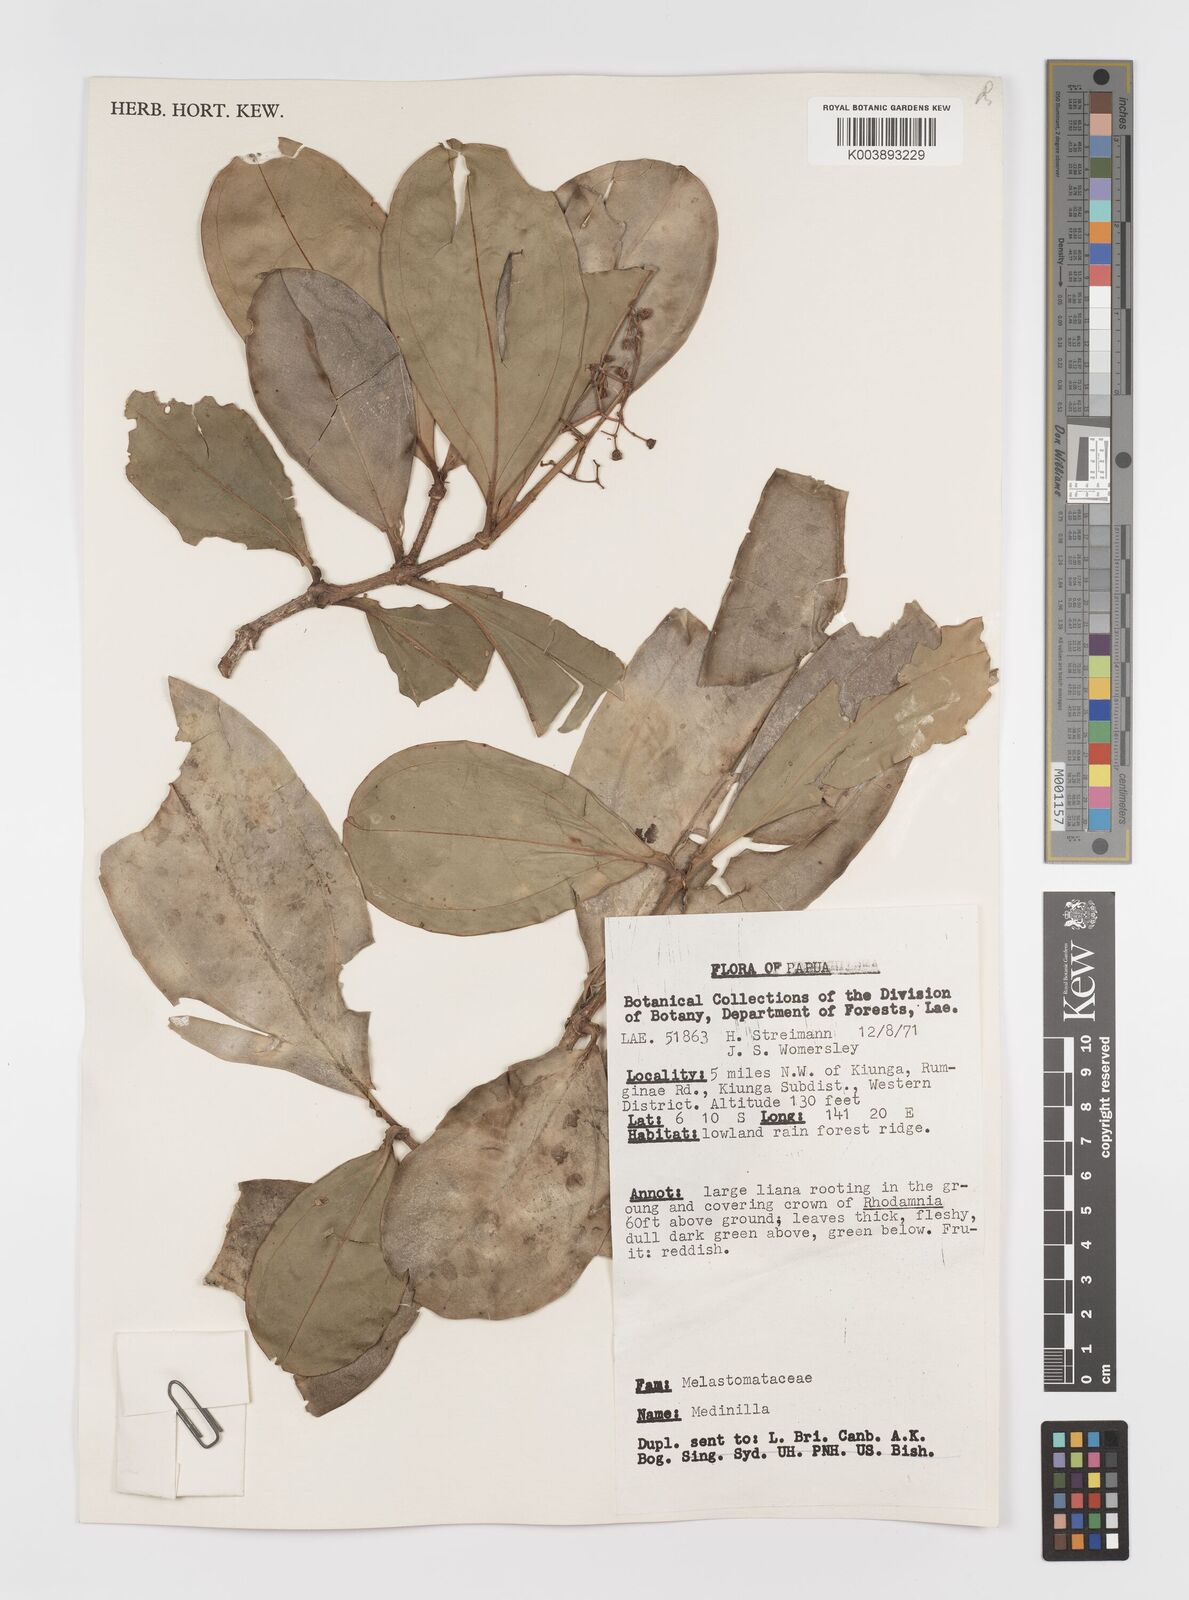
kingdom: Plantae
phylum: Tracheophyta
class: Magnoliopsida
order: Myrtales
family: Melastomataceae
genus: Medinilla
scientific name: Medinilla
